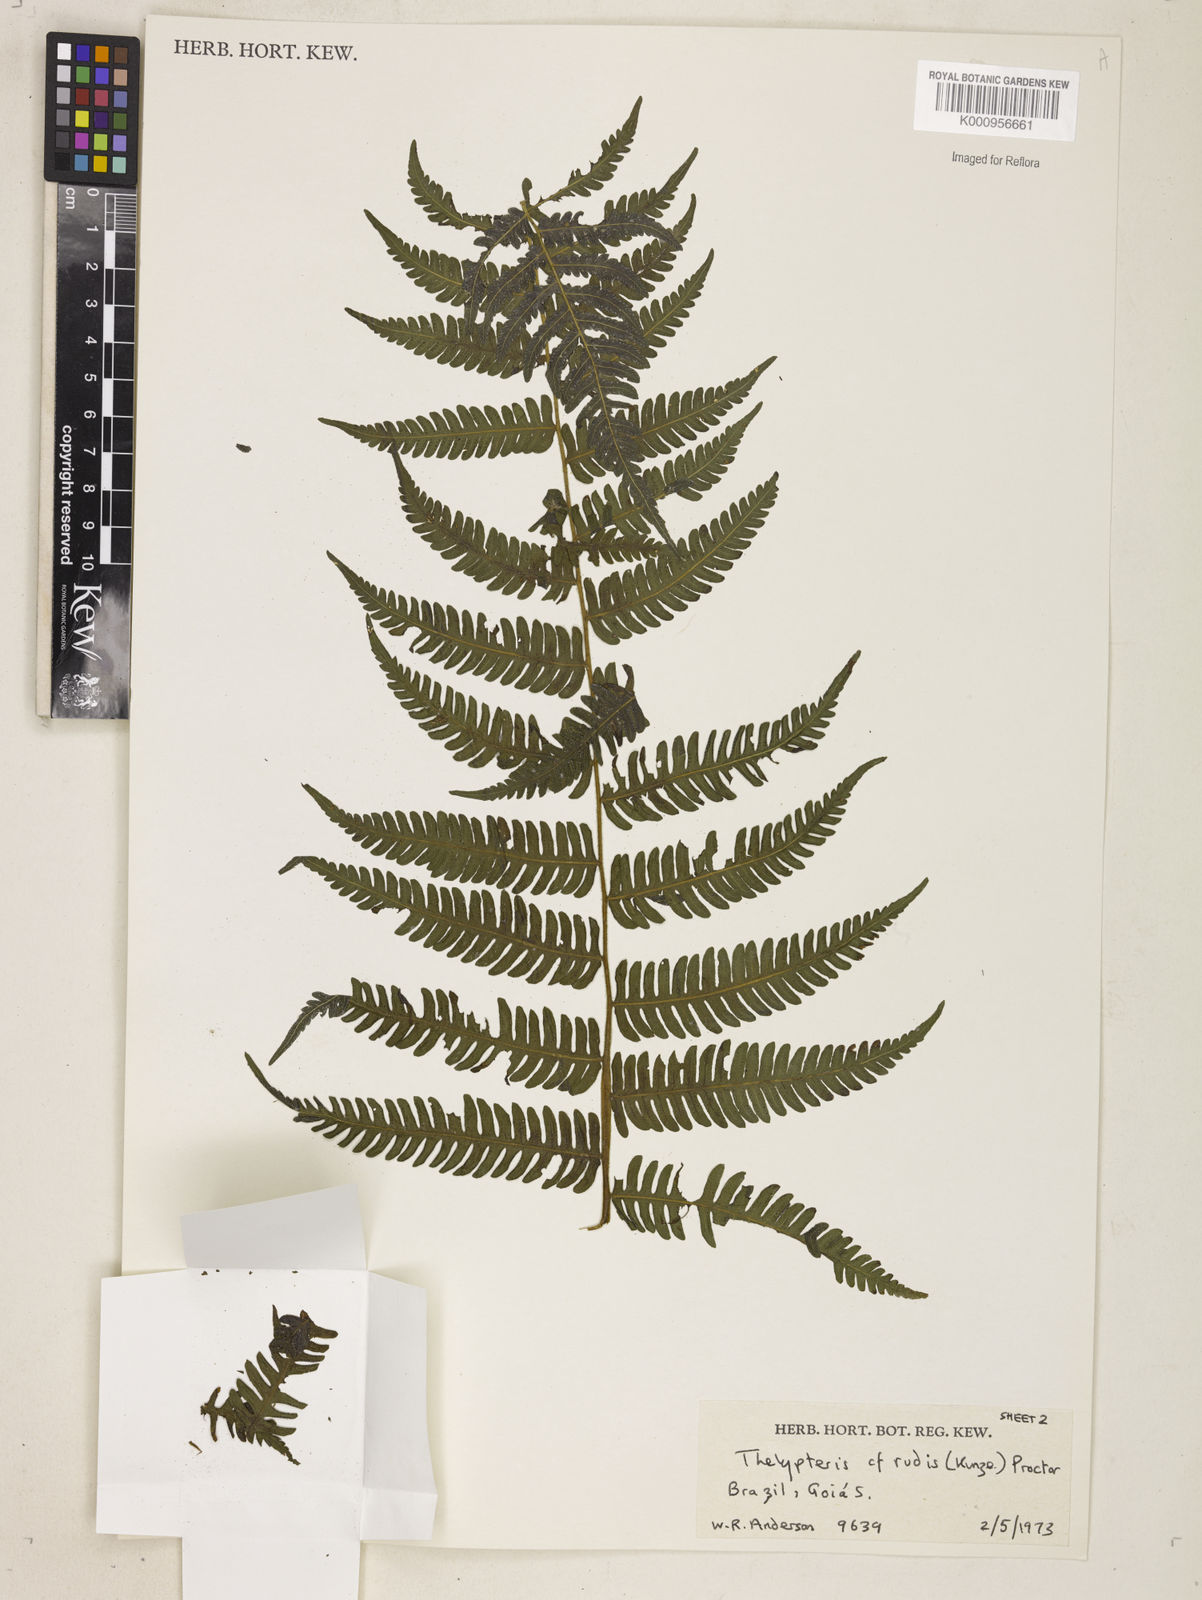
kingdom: Plantae
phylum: Tracheophyta
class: Polypodiopsida
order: Polypodiales
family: Thelypteridaceae
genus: Amauropelta
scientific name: Amauropelta heineri
